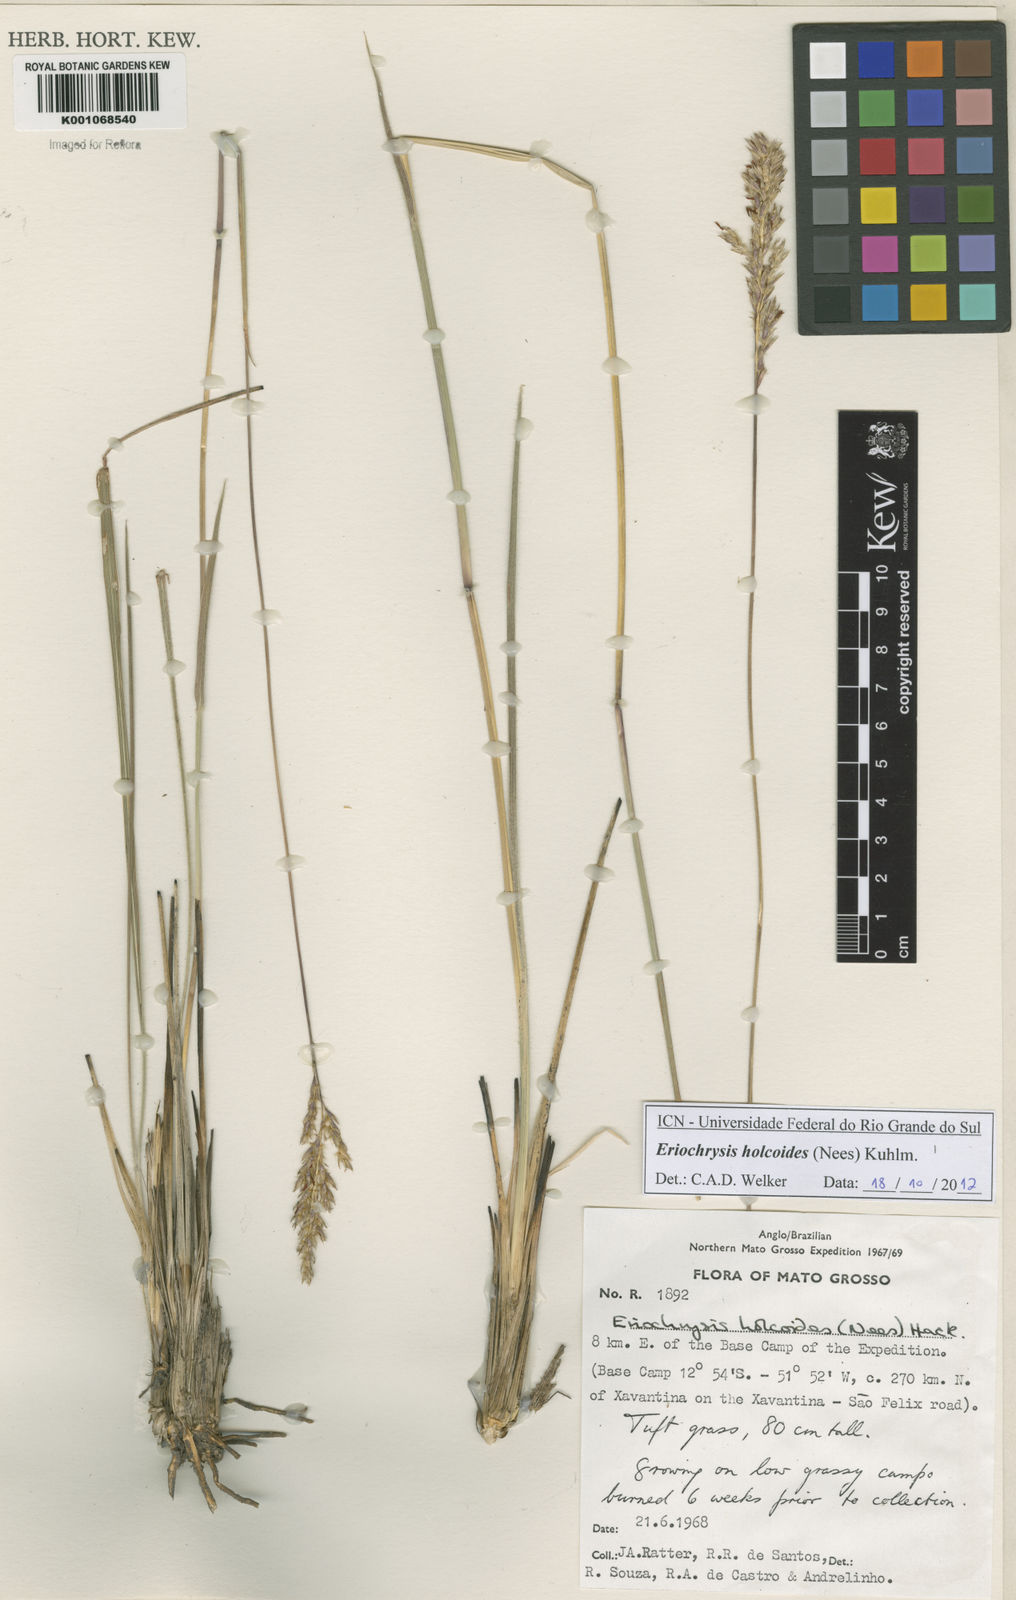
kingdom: Plantae
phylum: Tracheophyta
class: Liliopsida
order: Poales
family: Poaceae
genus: Eriochrysis
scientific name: Eriochrysis holcoides
